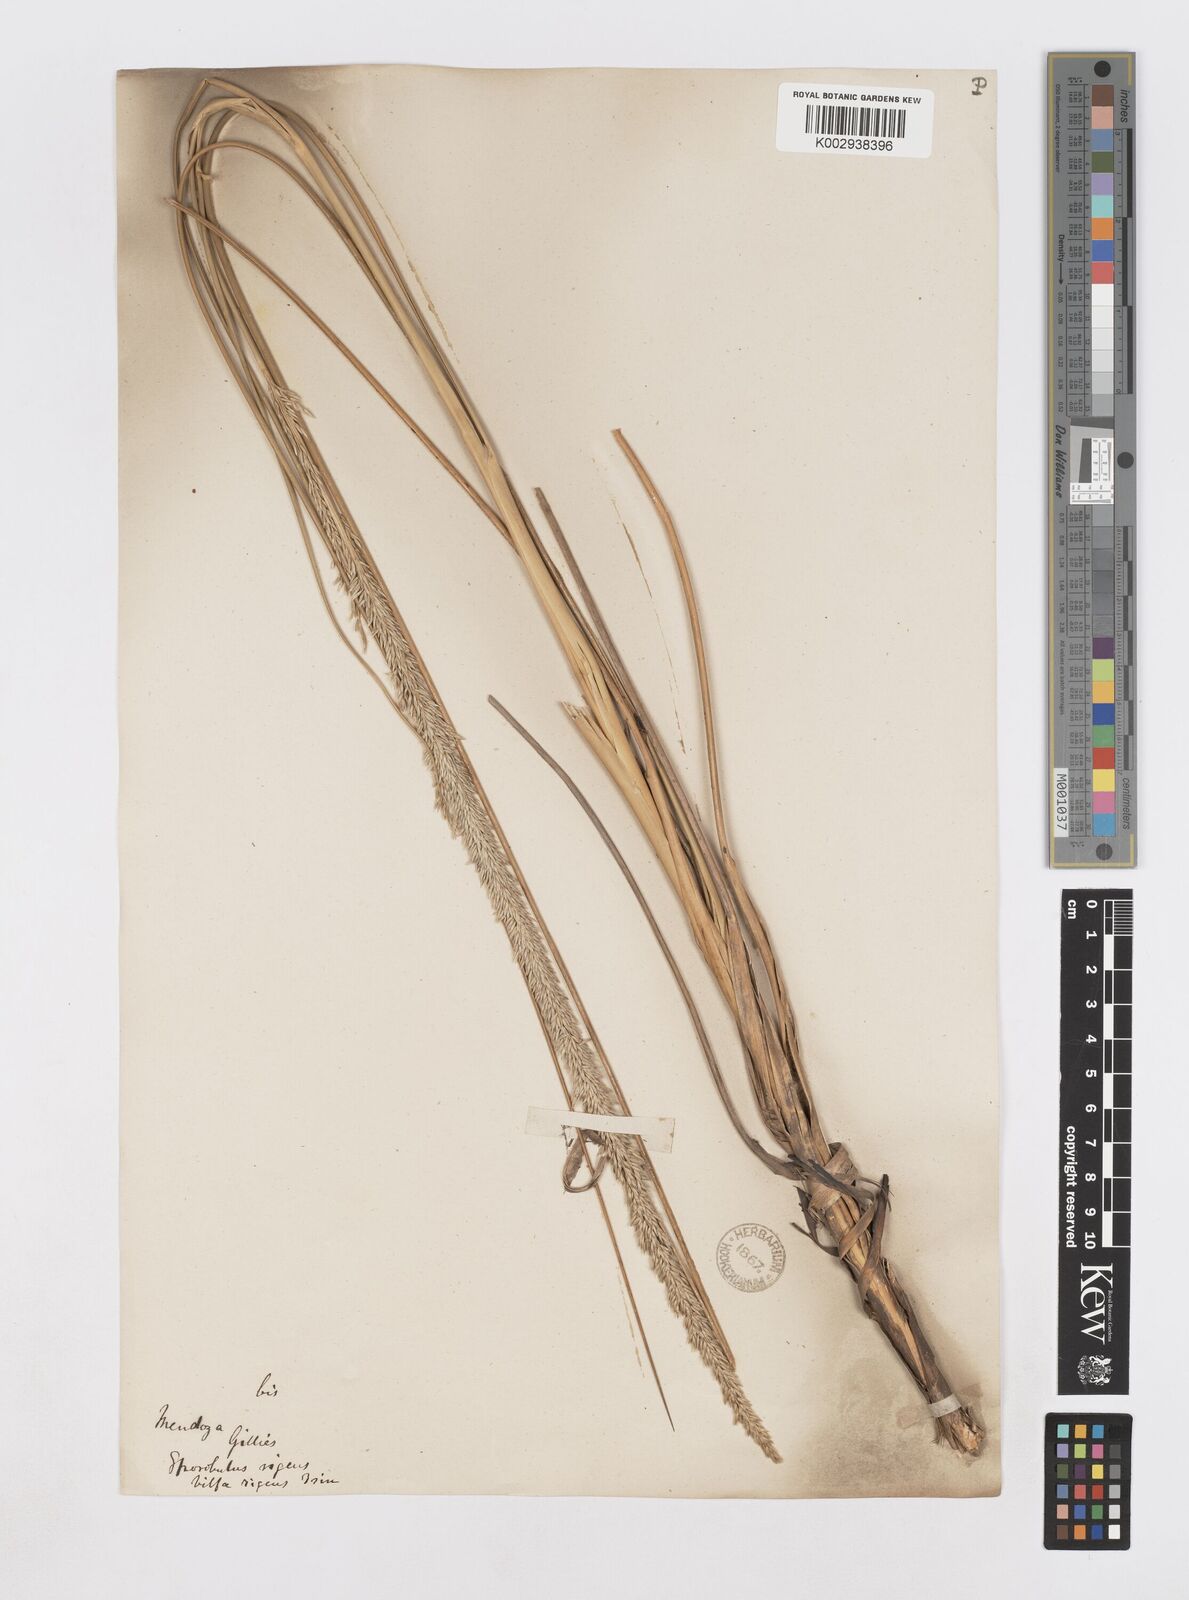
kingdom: Plantae
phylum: Tracheophyta
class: Liliopsida
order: Poales
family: Poaceae
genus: Sporobolus
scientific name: Sporobolus rigens
